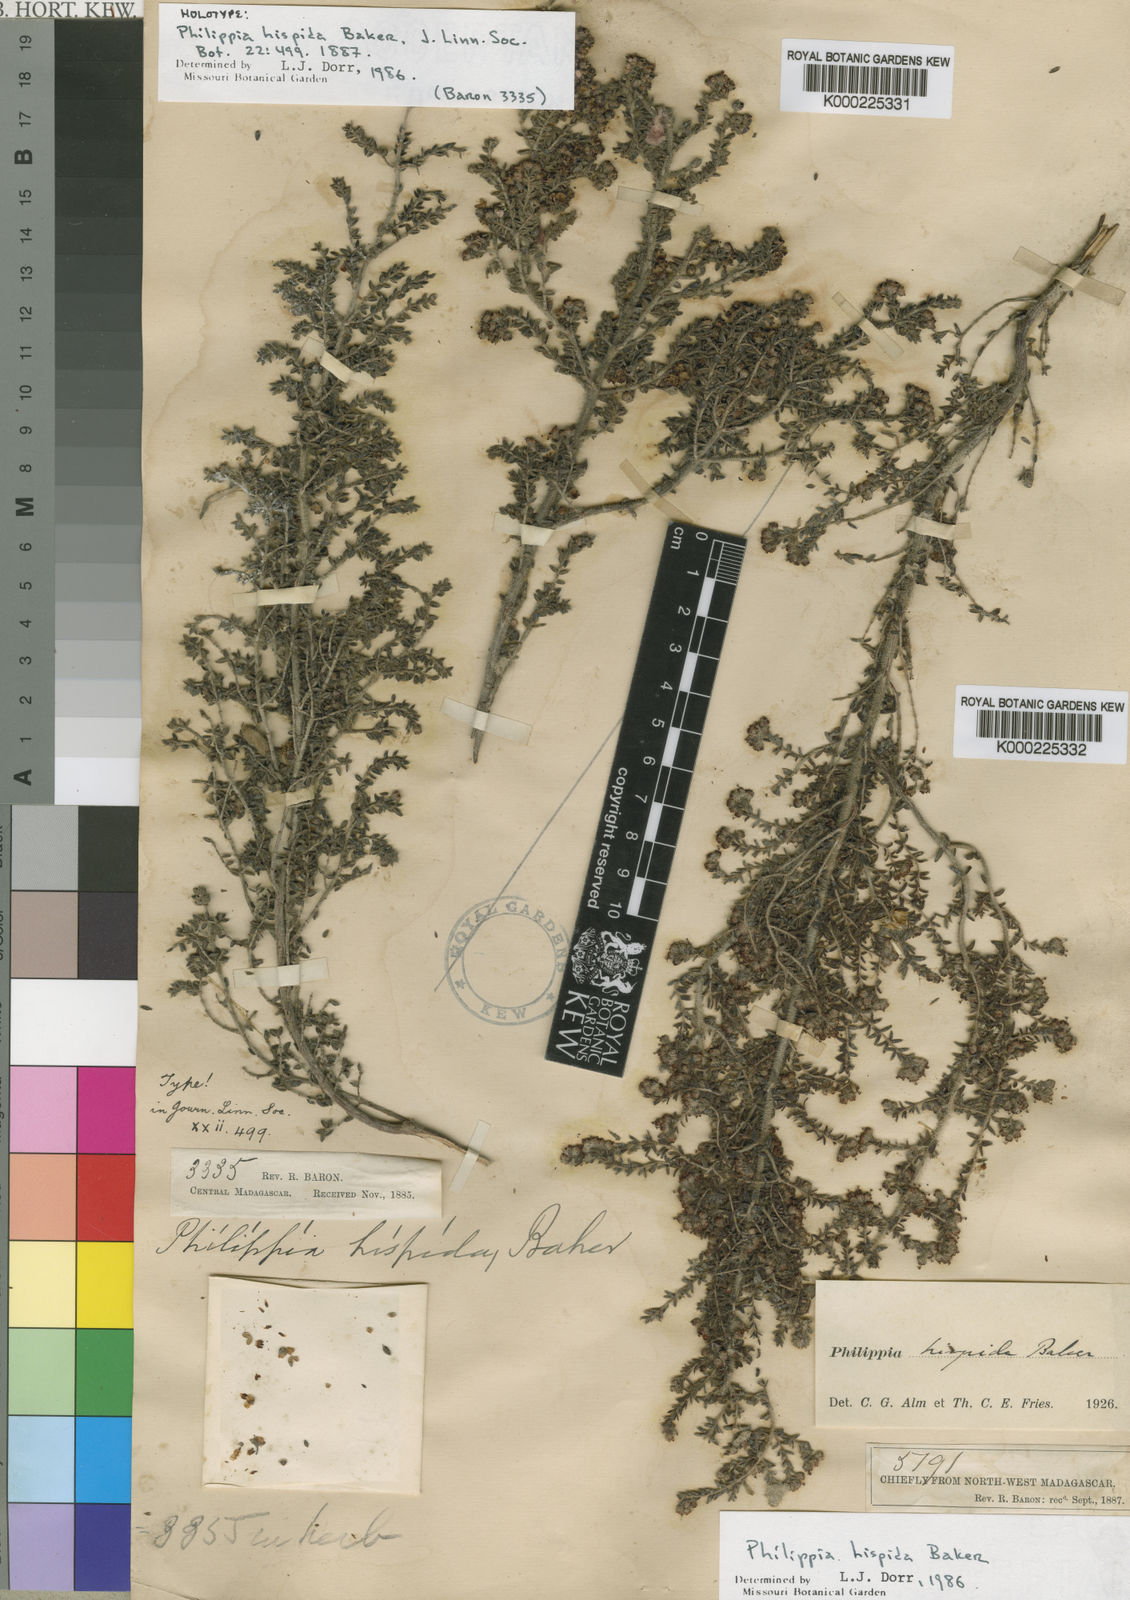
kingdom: Plantae
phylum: Tracheophyta
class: Magnoliopsida
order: Ericales
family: Ericaceae
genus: Erica
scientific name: Erica perhispida
